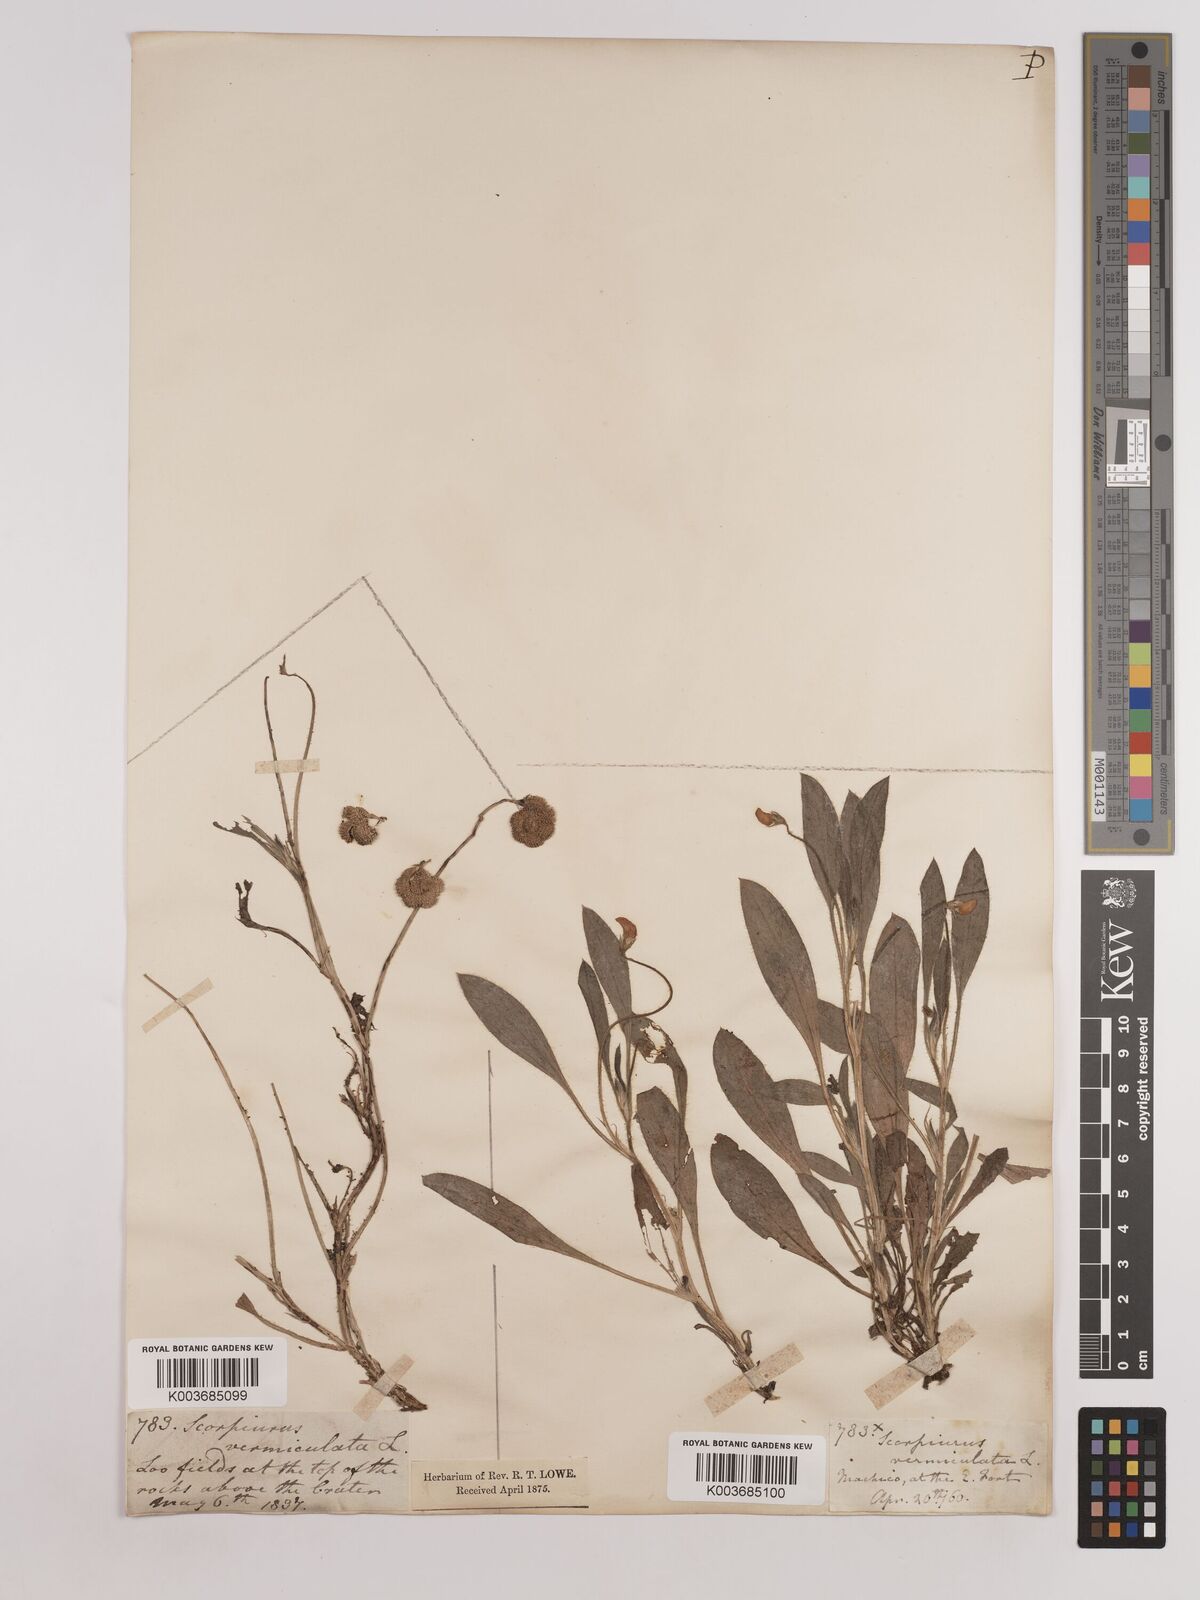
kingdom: Plantae
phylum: Tracheophyta
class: Magnoliopsida
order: Fabales
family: Fabaceae
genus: Scorpiurus
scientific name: Scorpiurus vermiculatus
